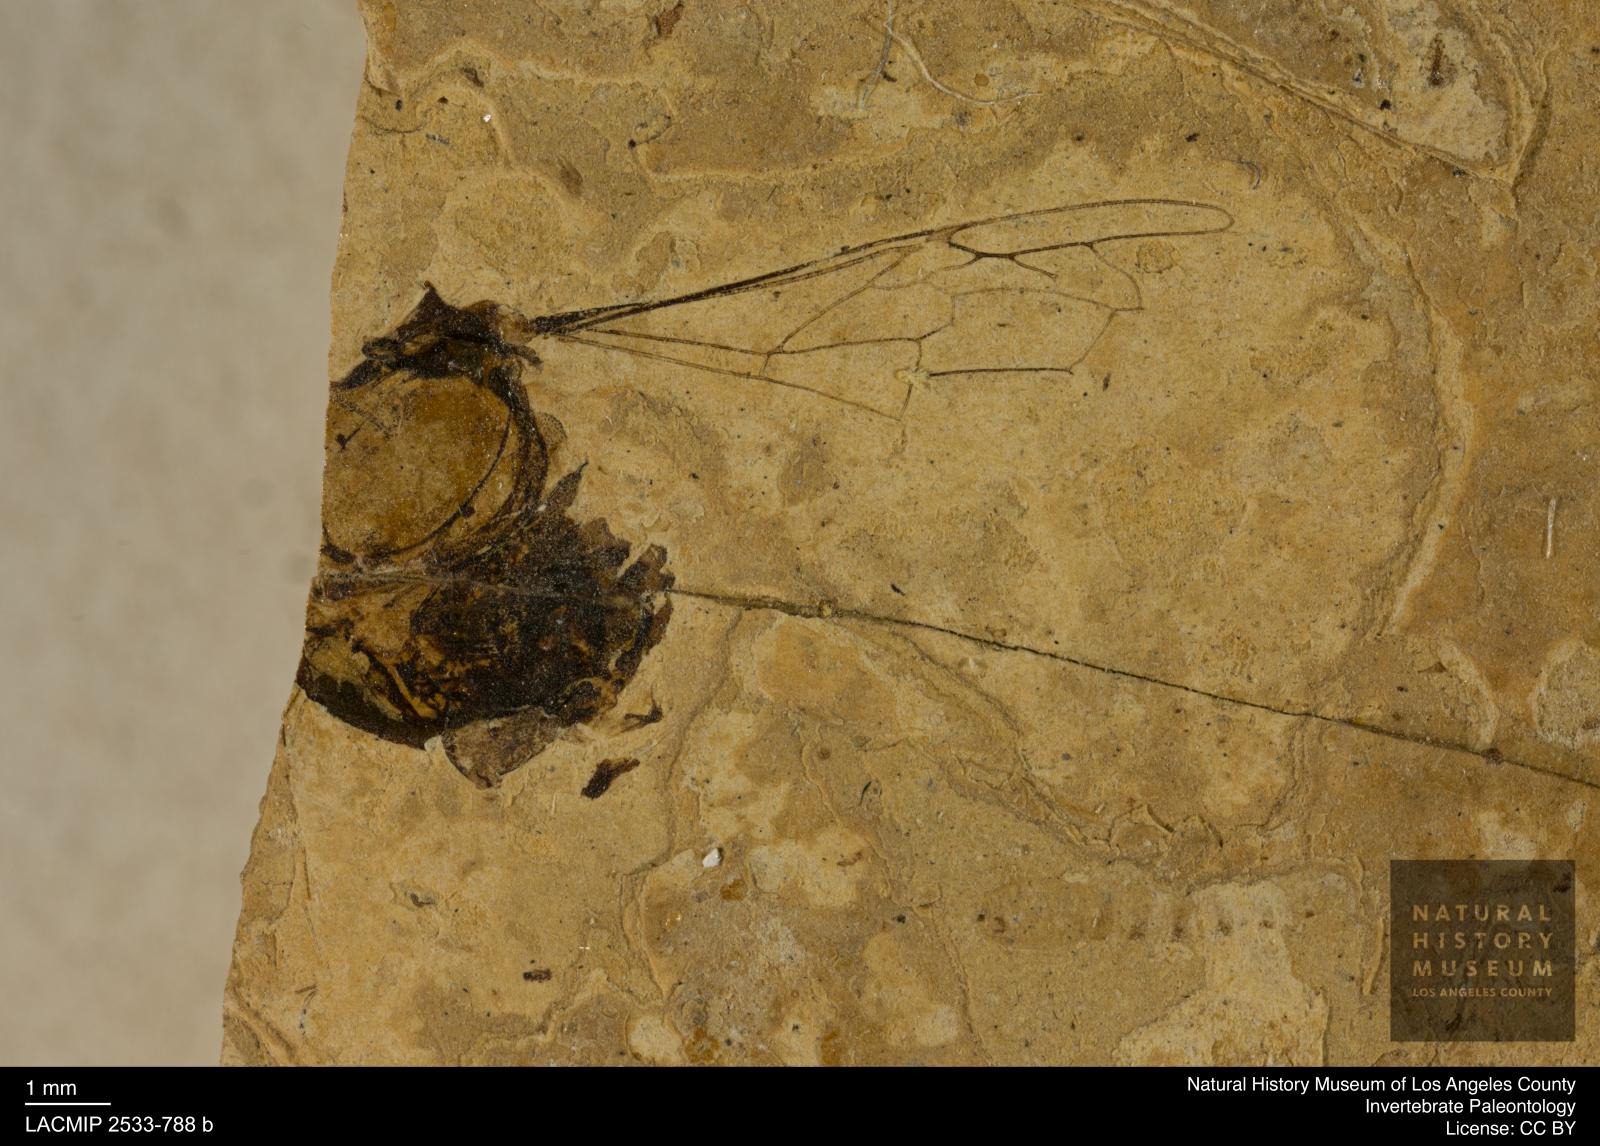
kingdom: Animalia
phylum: Arthropoda
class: Insecta
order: Hymenoptera
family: Apidae
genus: Apis
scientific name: Apis henshawi
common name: Henshaw's honey bee
